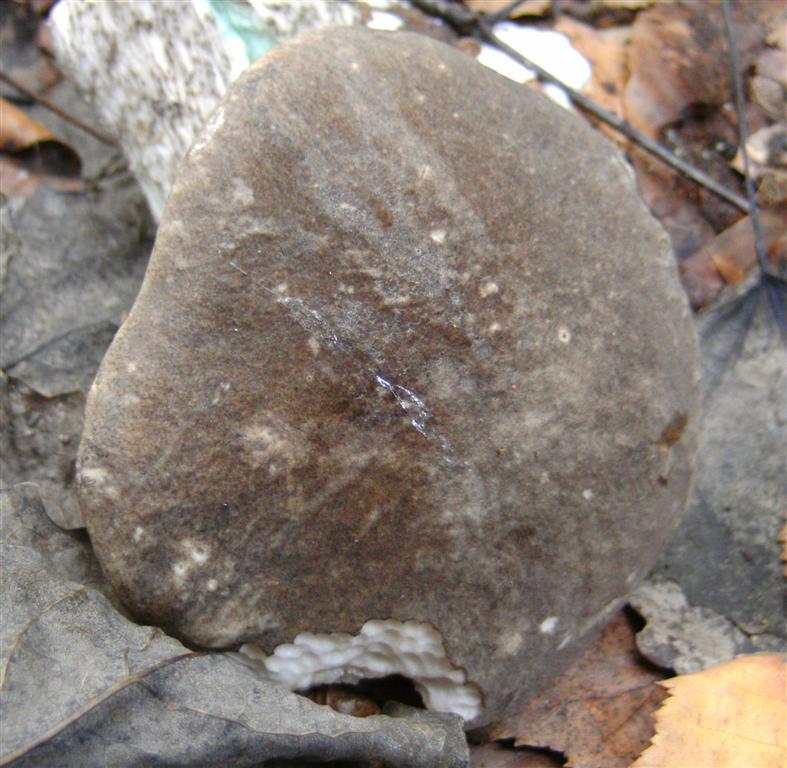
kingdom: Fungi
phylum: Basidiomycota
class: Agaricomycetes
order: Boletales
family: Boletaceae
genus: Leccinum
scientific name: Leccinum variicolor
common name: flammet skælrørhat
